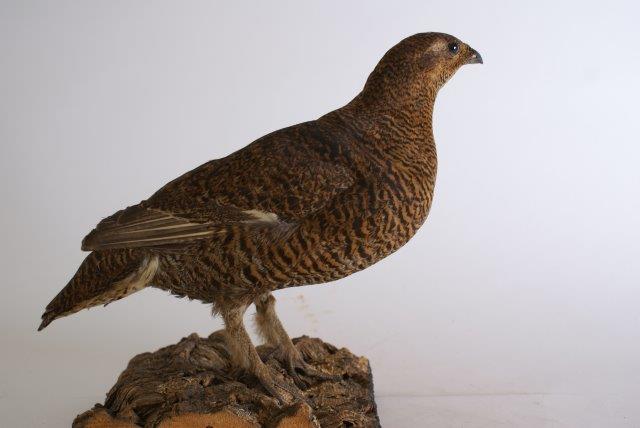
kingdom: Animalia
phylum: Chordata
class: Aves
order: Galliformes
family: Phasianidae
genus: Lagopus
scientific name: Lagopus lagopus
